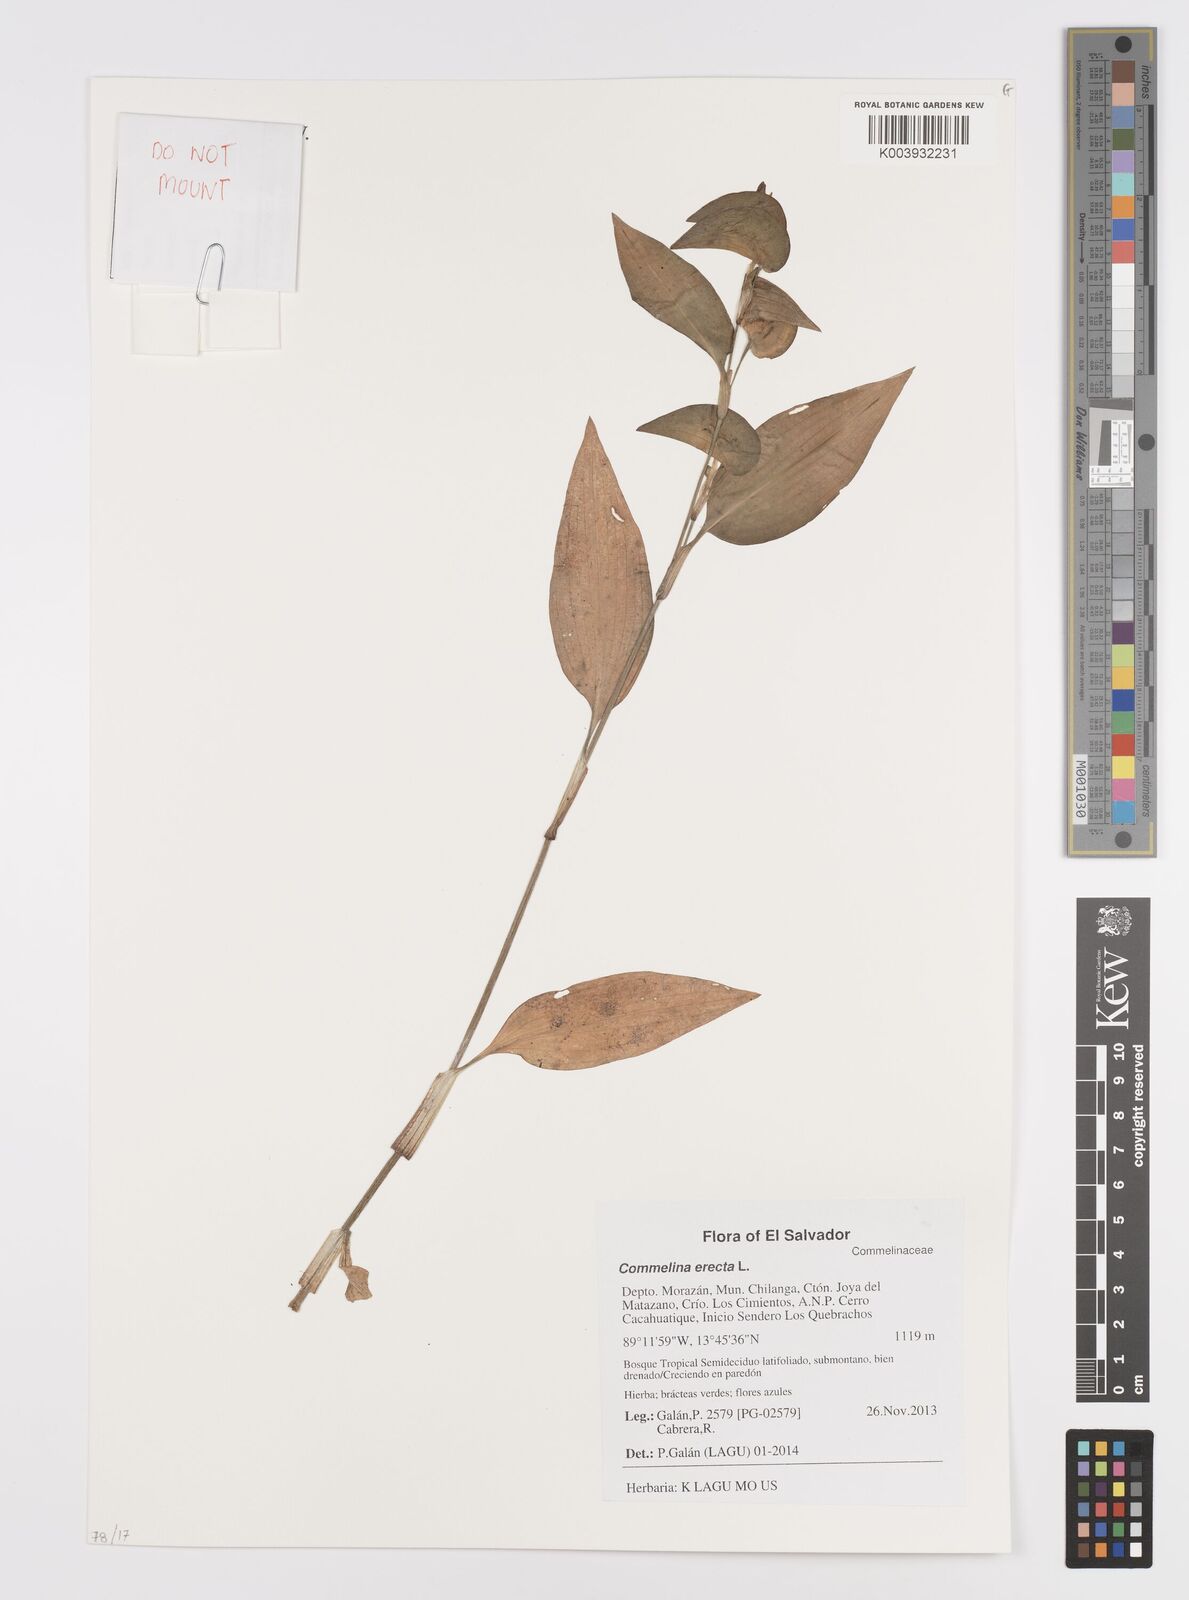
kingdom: Plantae
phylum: Tracheophyta
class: Liliopsida
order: Commelinales
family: Commelinaceae
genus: Commelina
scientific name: Commelina erecta
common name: Blousel blommetjie
